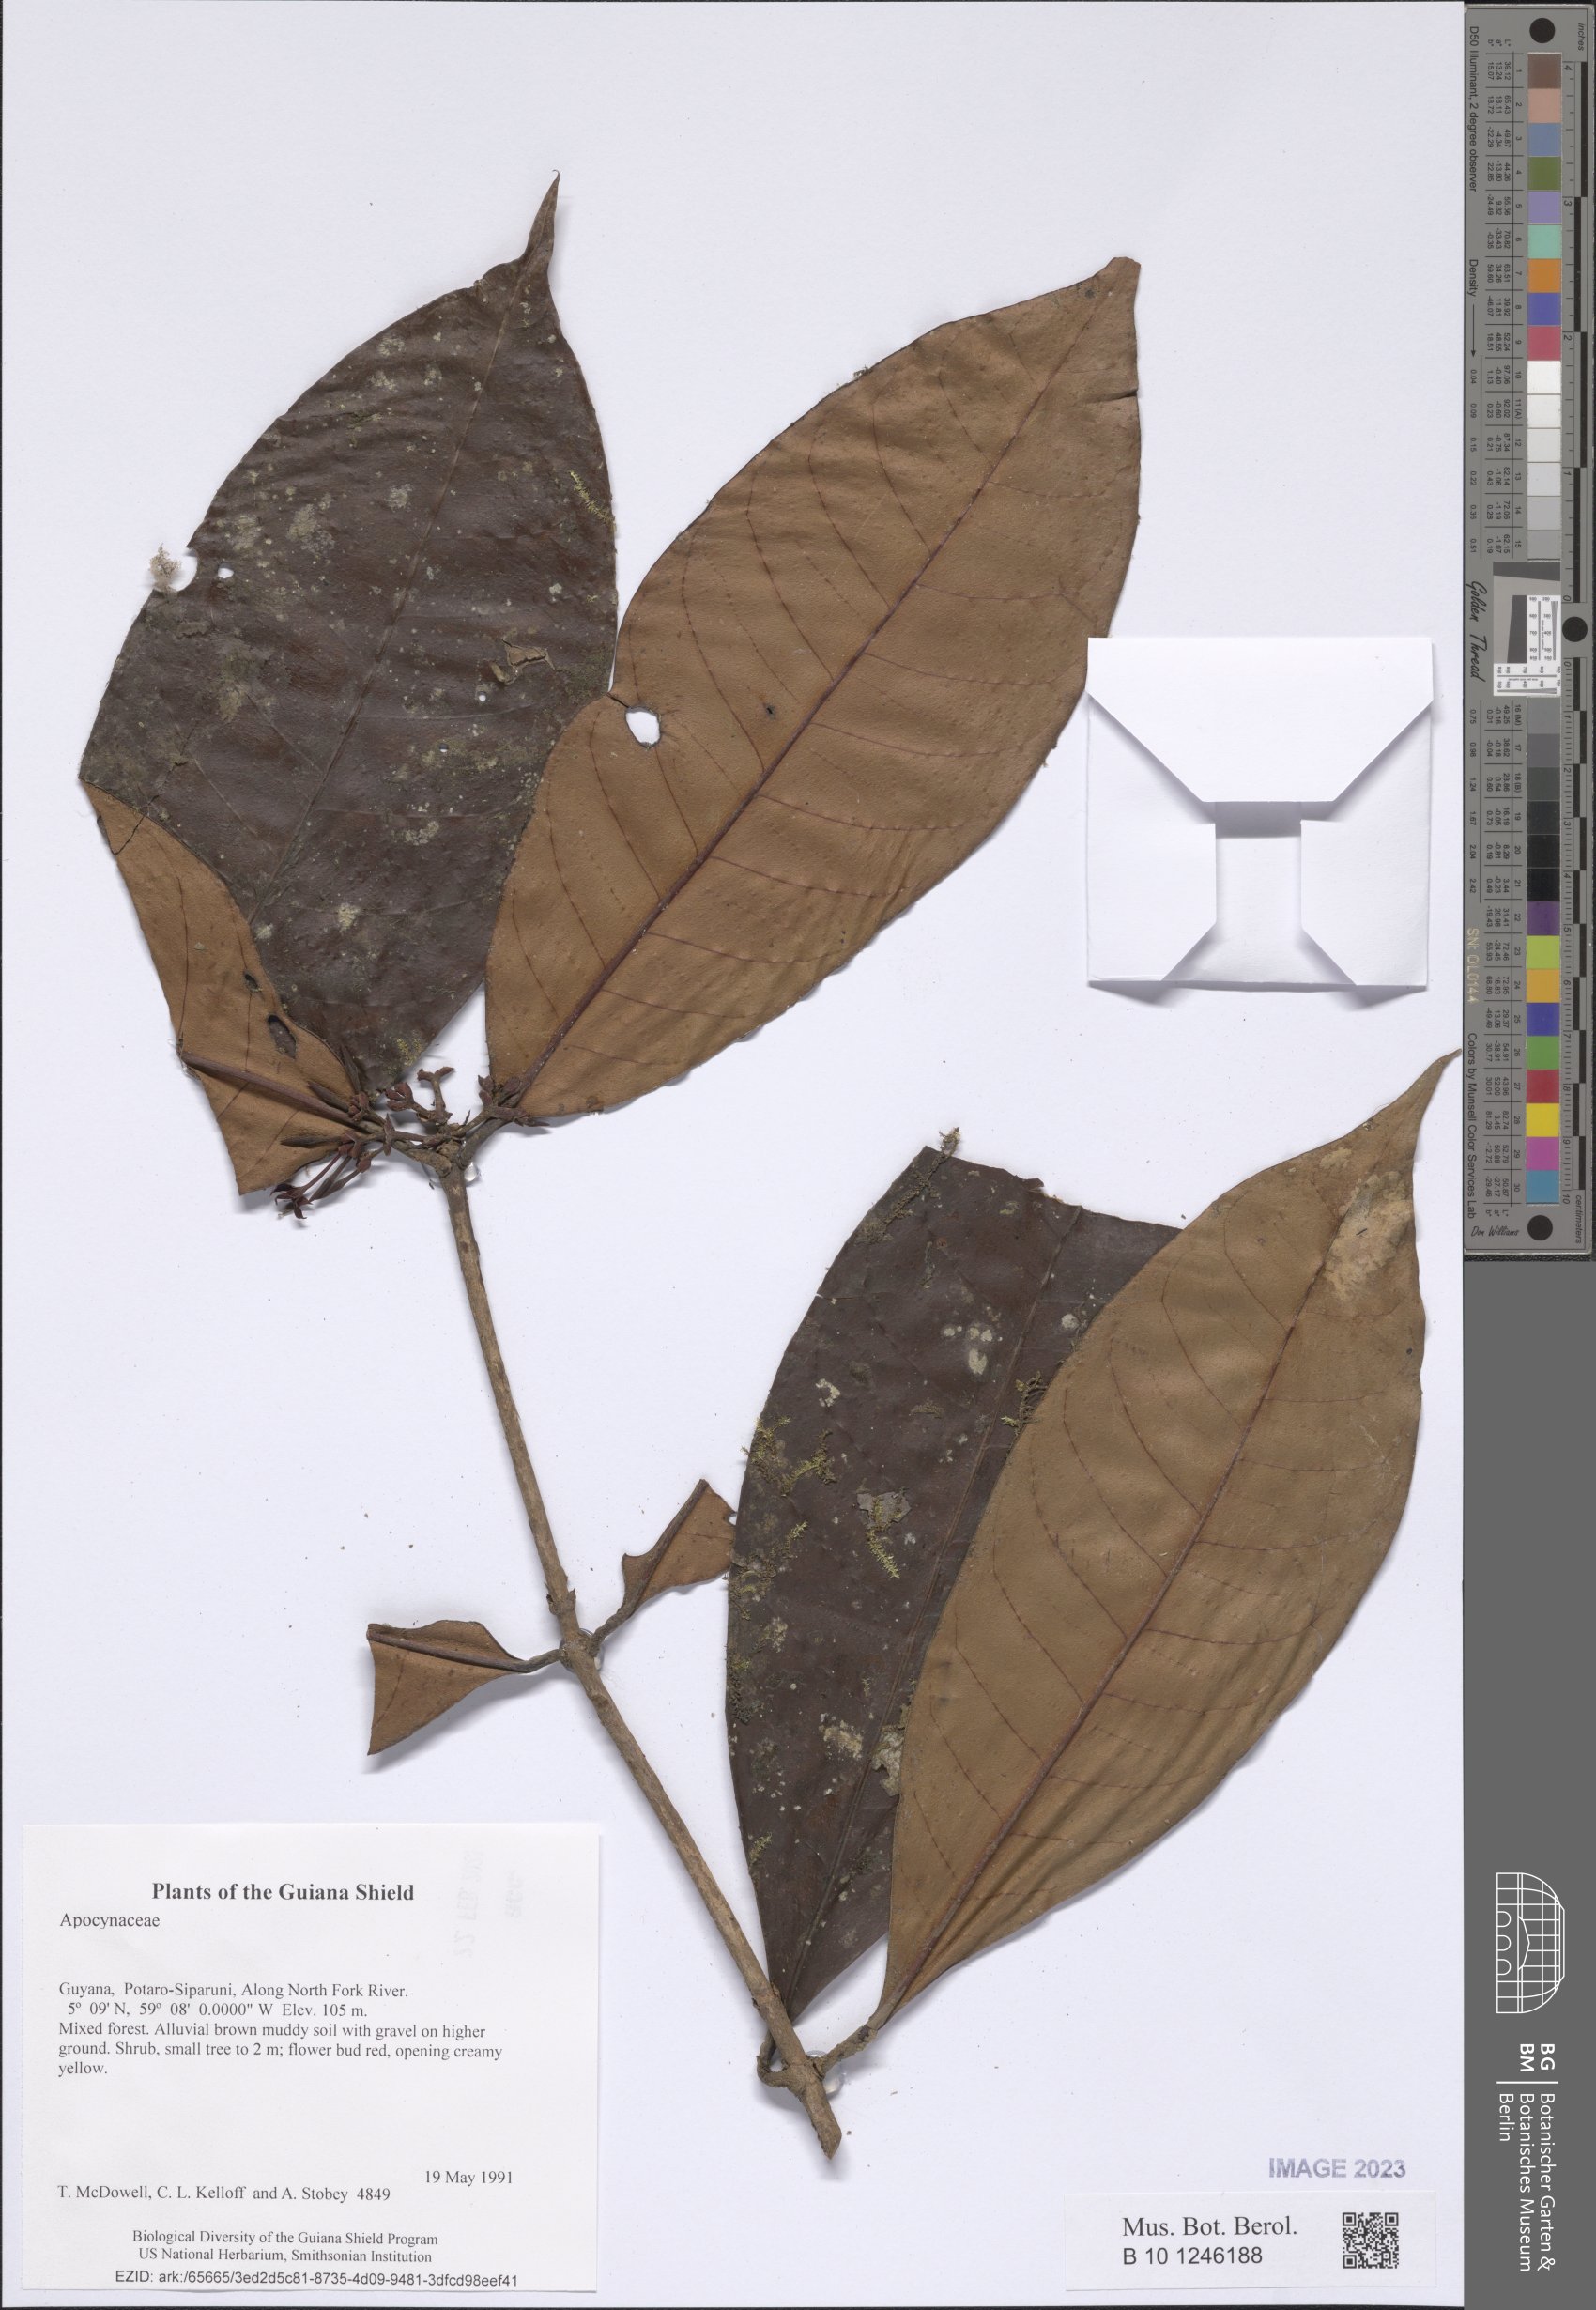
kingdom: Plantae
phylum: Tracheophyta
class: Magnoliopsida
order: Gentianales
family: Apocynaceae
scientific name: Apocynaceae
